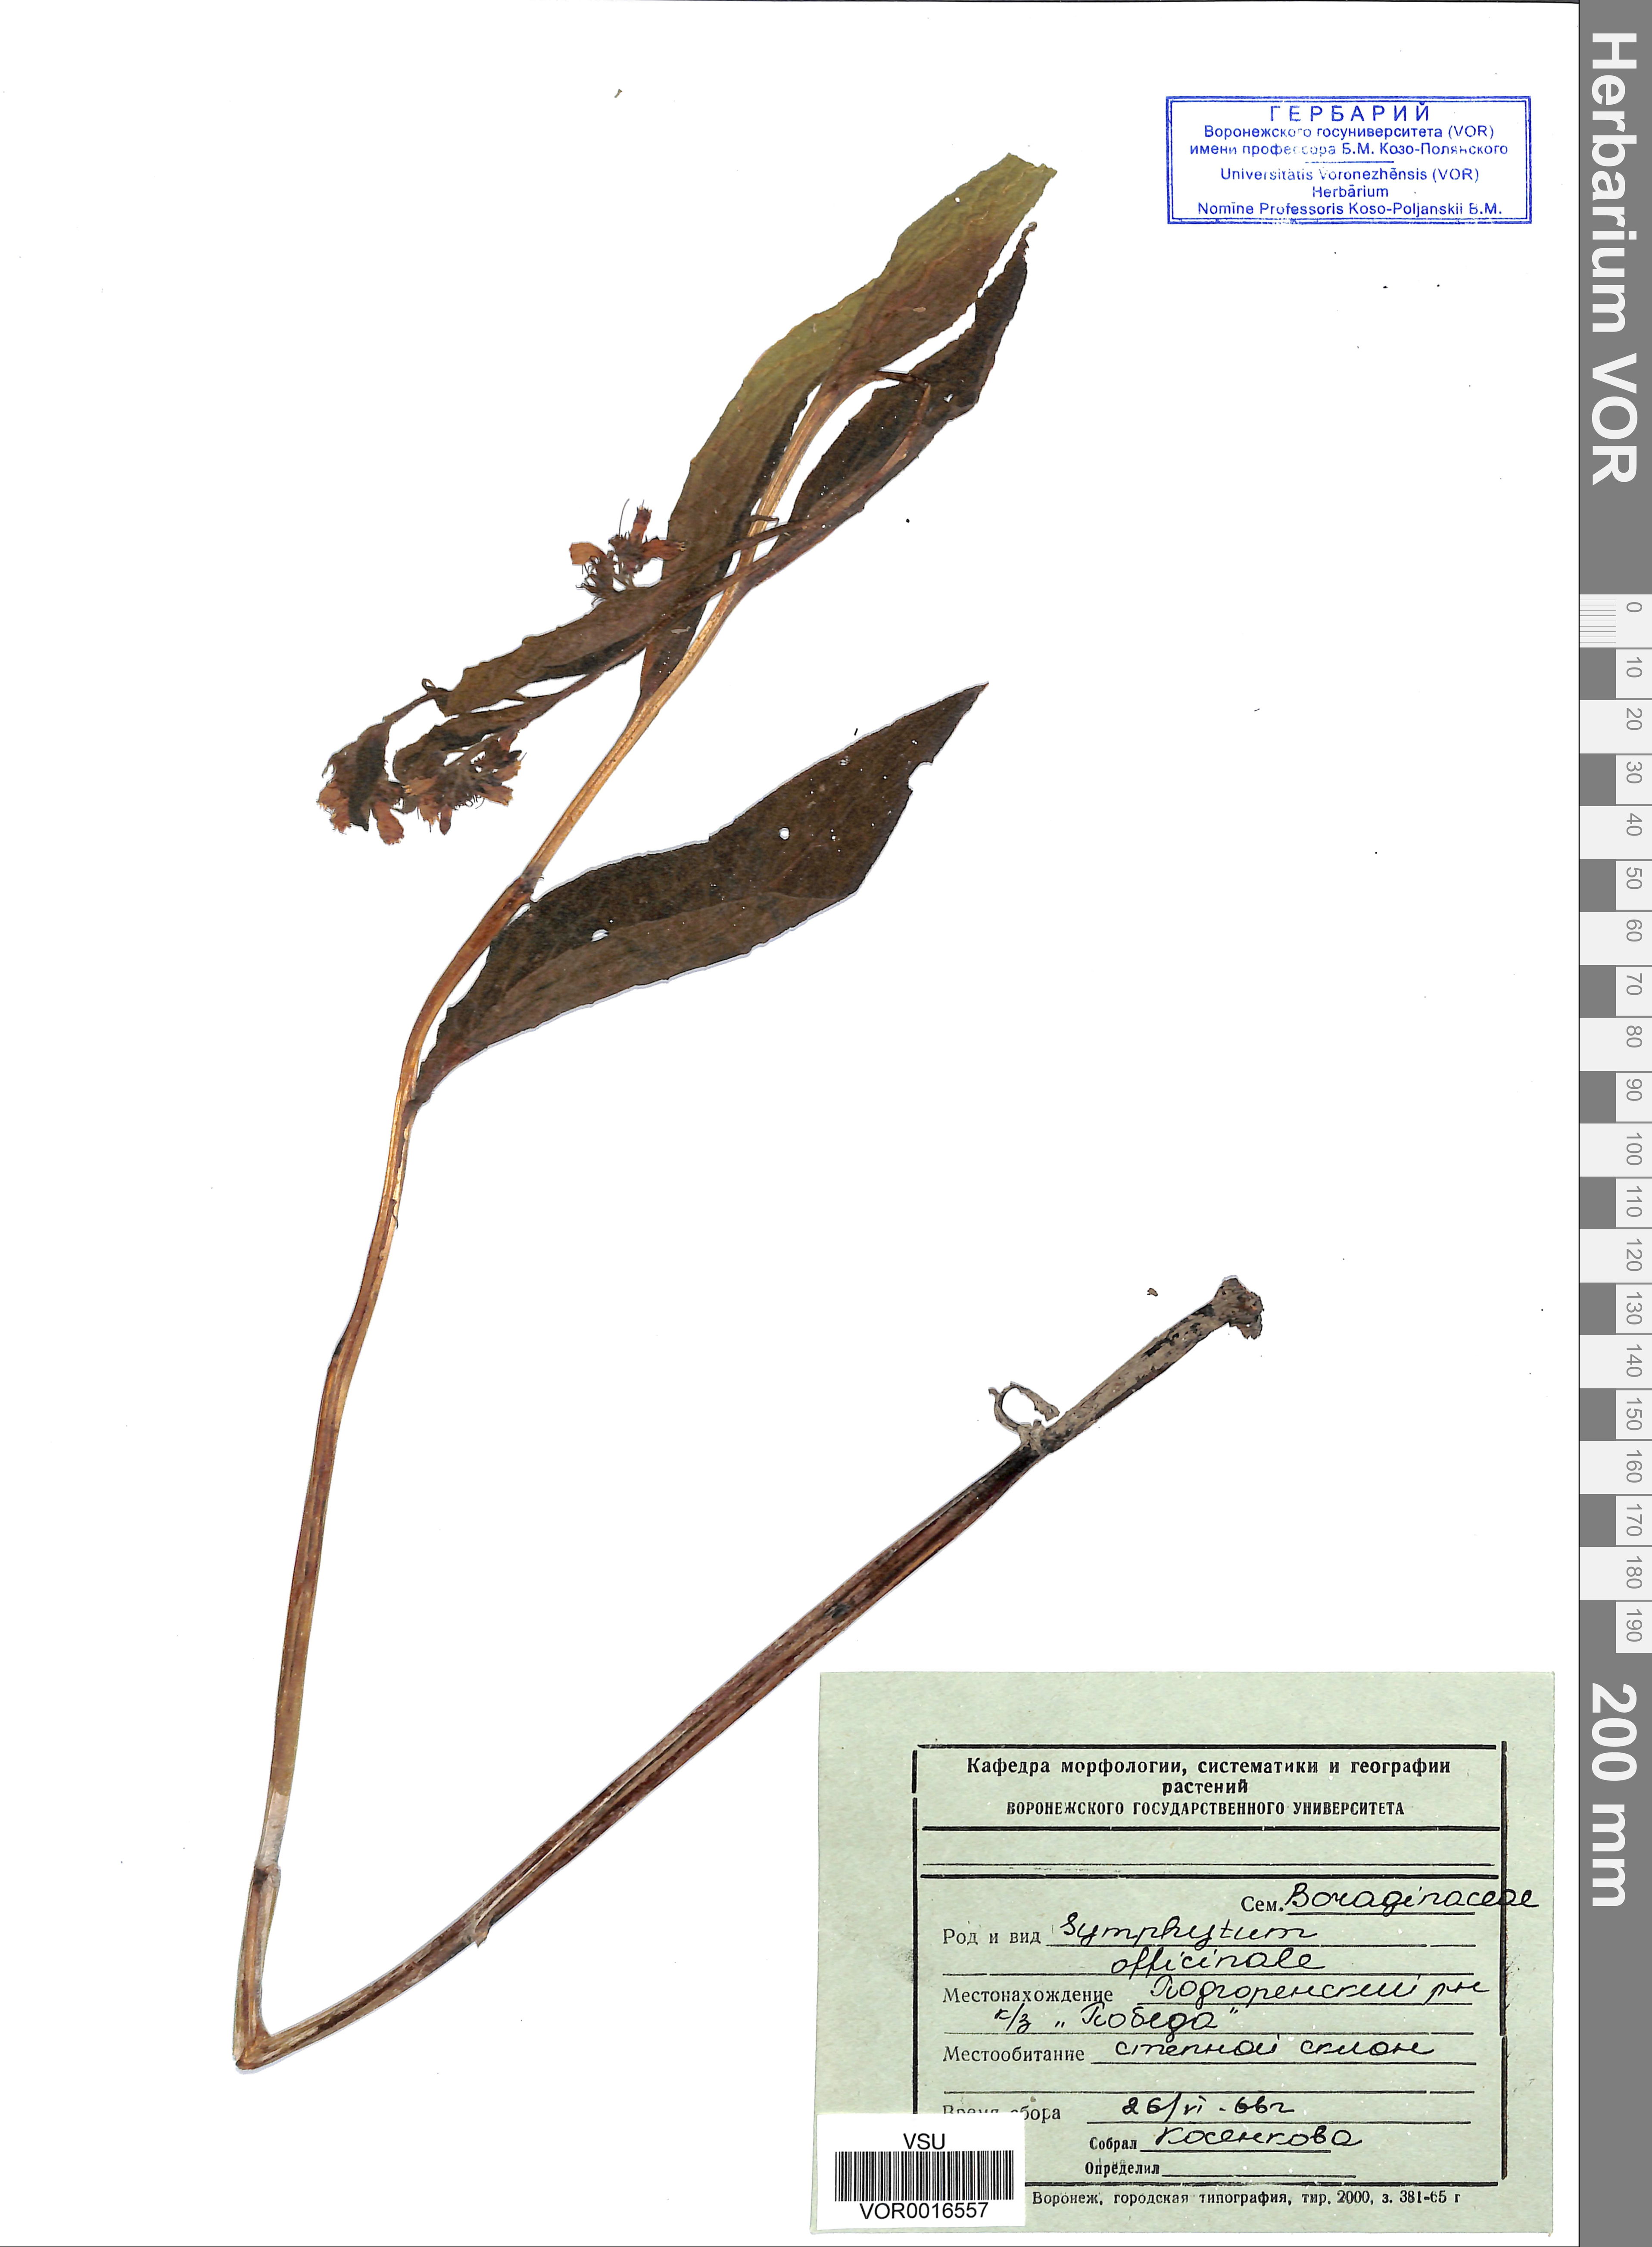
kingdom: Plantae
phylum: Tracheophyta
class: Magnoliopsida
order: Boraginales
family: Boraginaceae
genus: Symphytum
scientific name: Symphytum officinale
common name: Common comfrey
